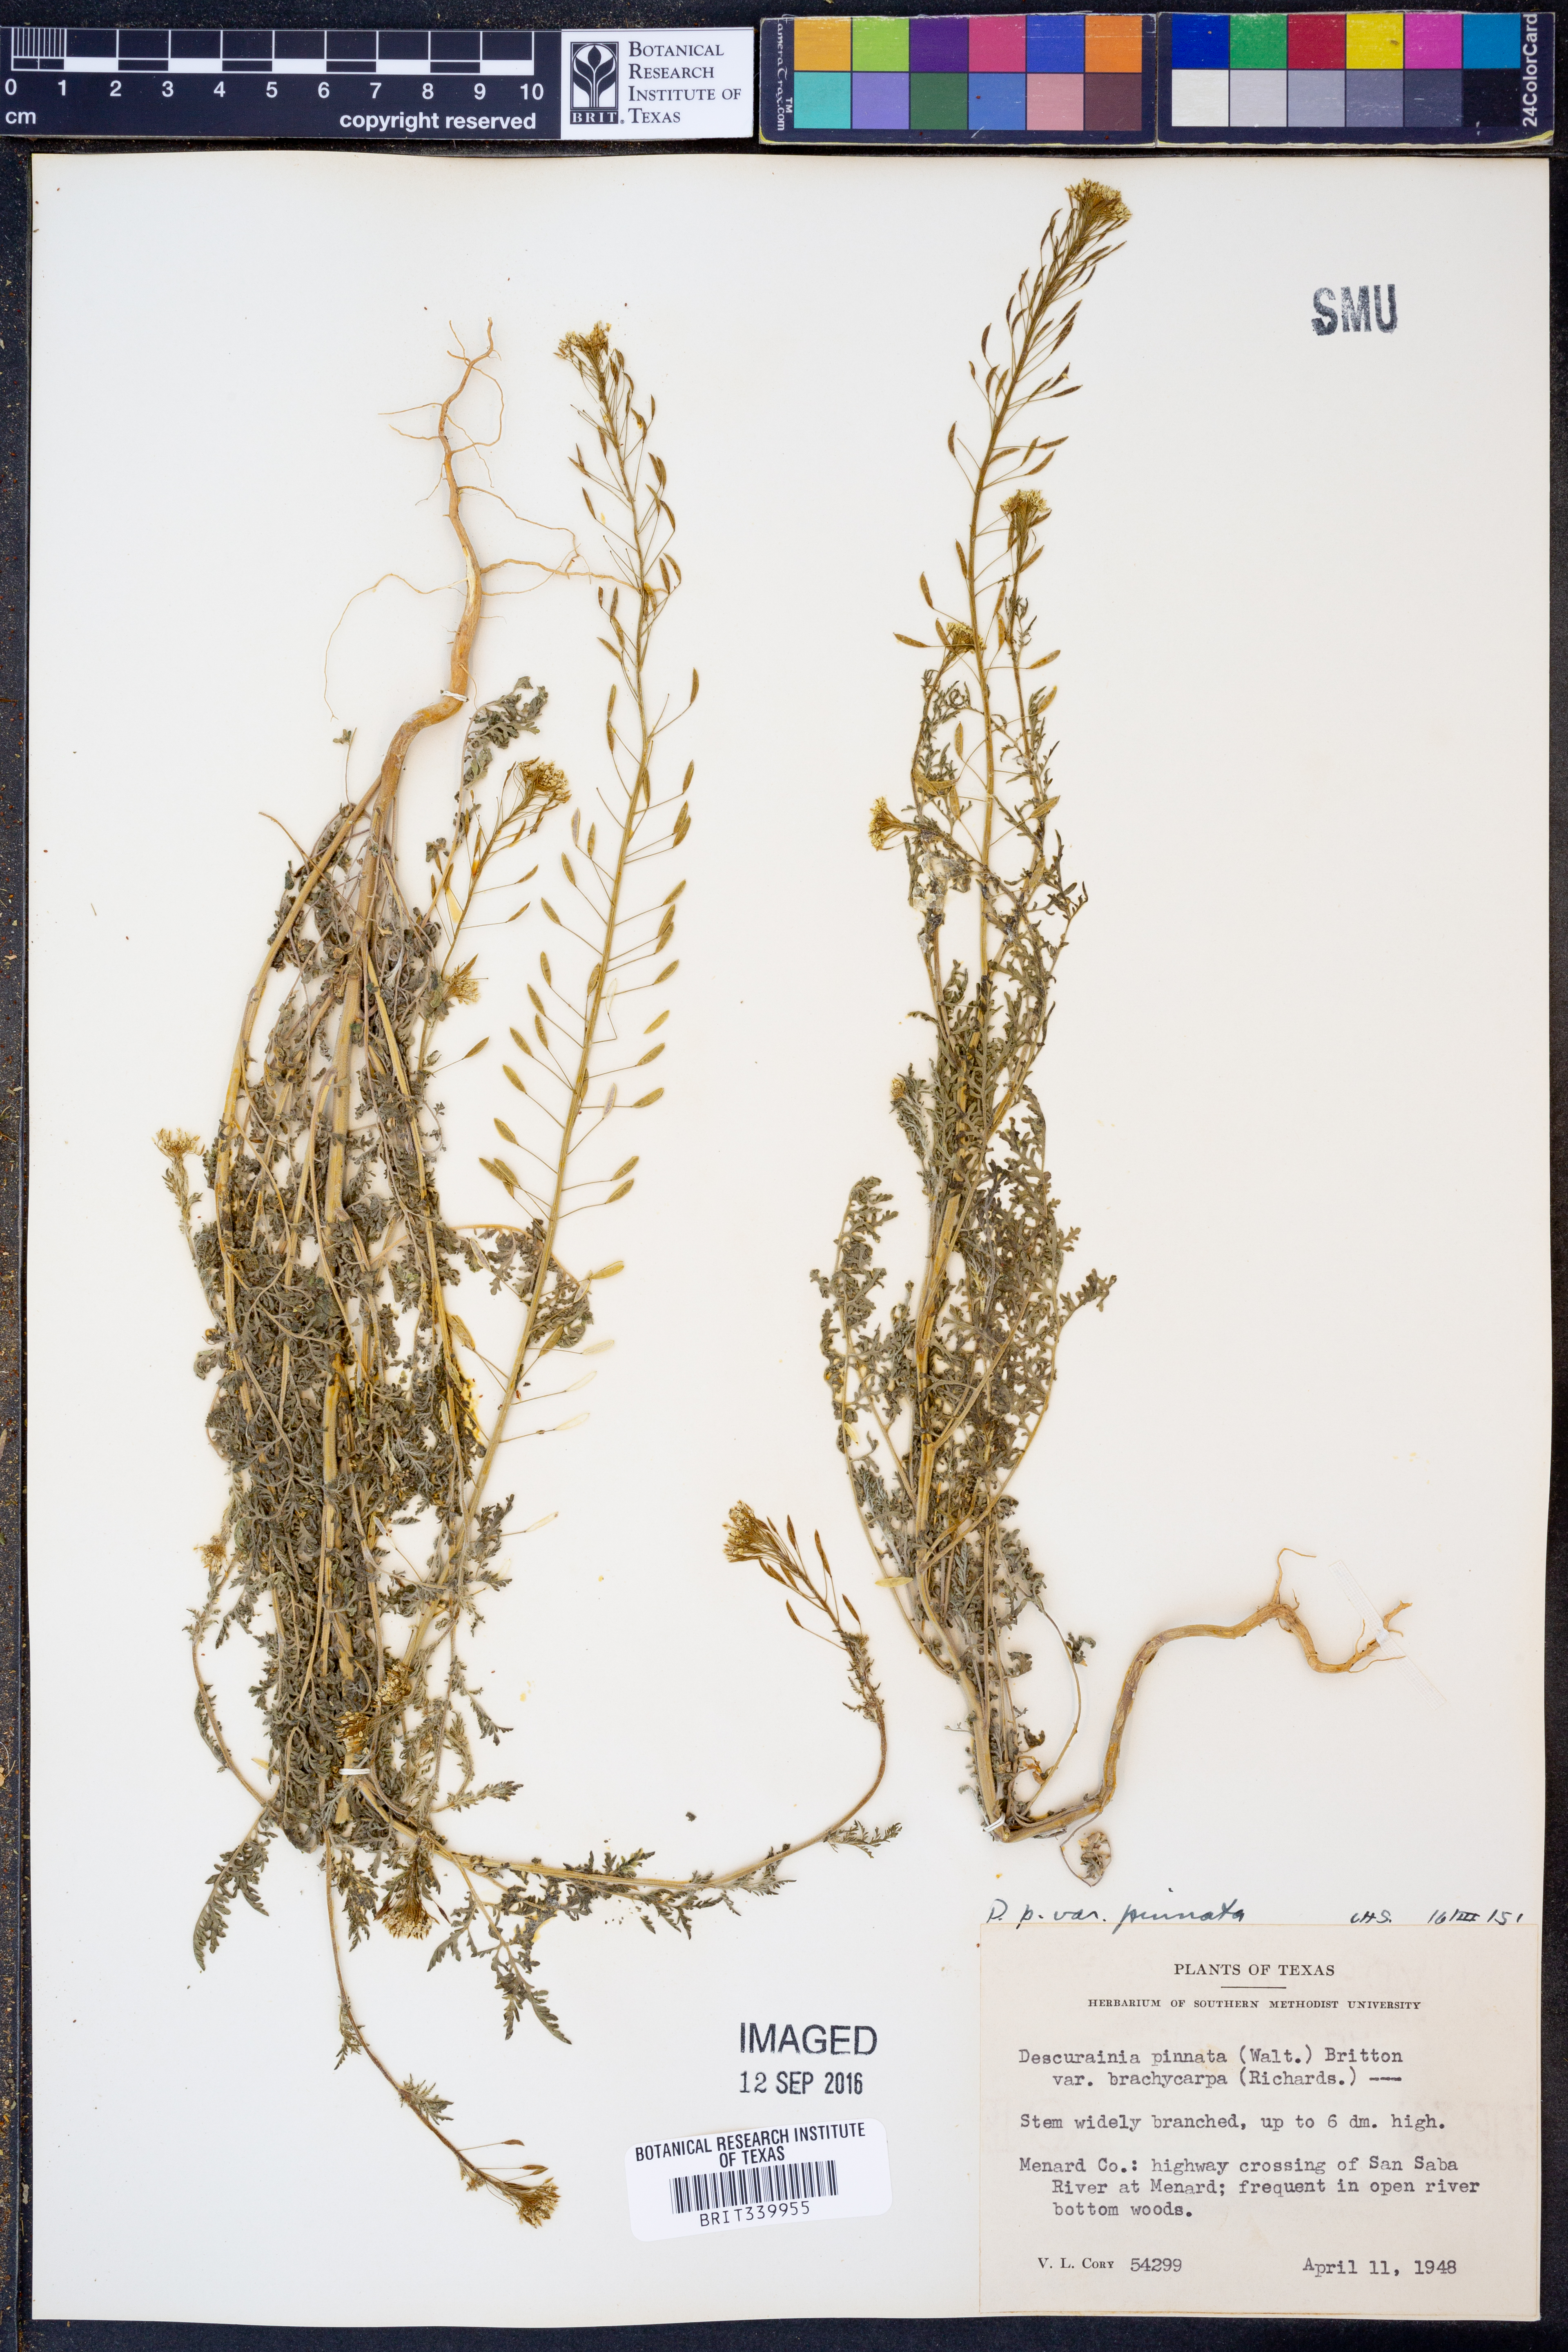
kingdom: Plantae
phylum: Tracheophyta
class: Magnoliopsida
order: Brassicales
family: Brassicaceae
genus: Descurainia
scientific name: Descurainia pinnata
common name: Western tansy mustard
